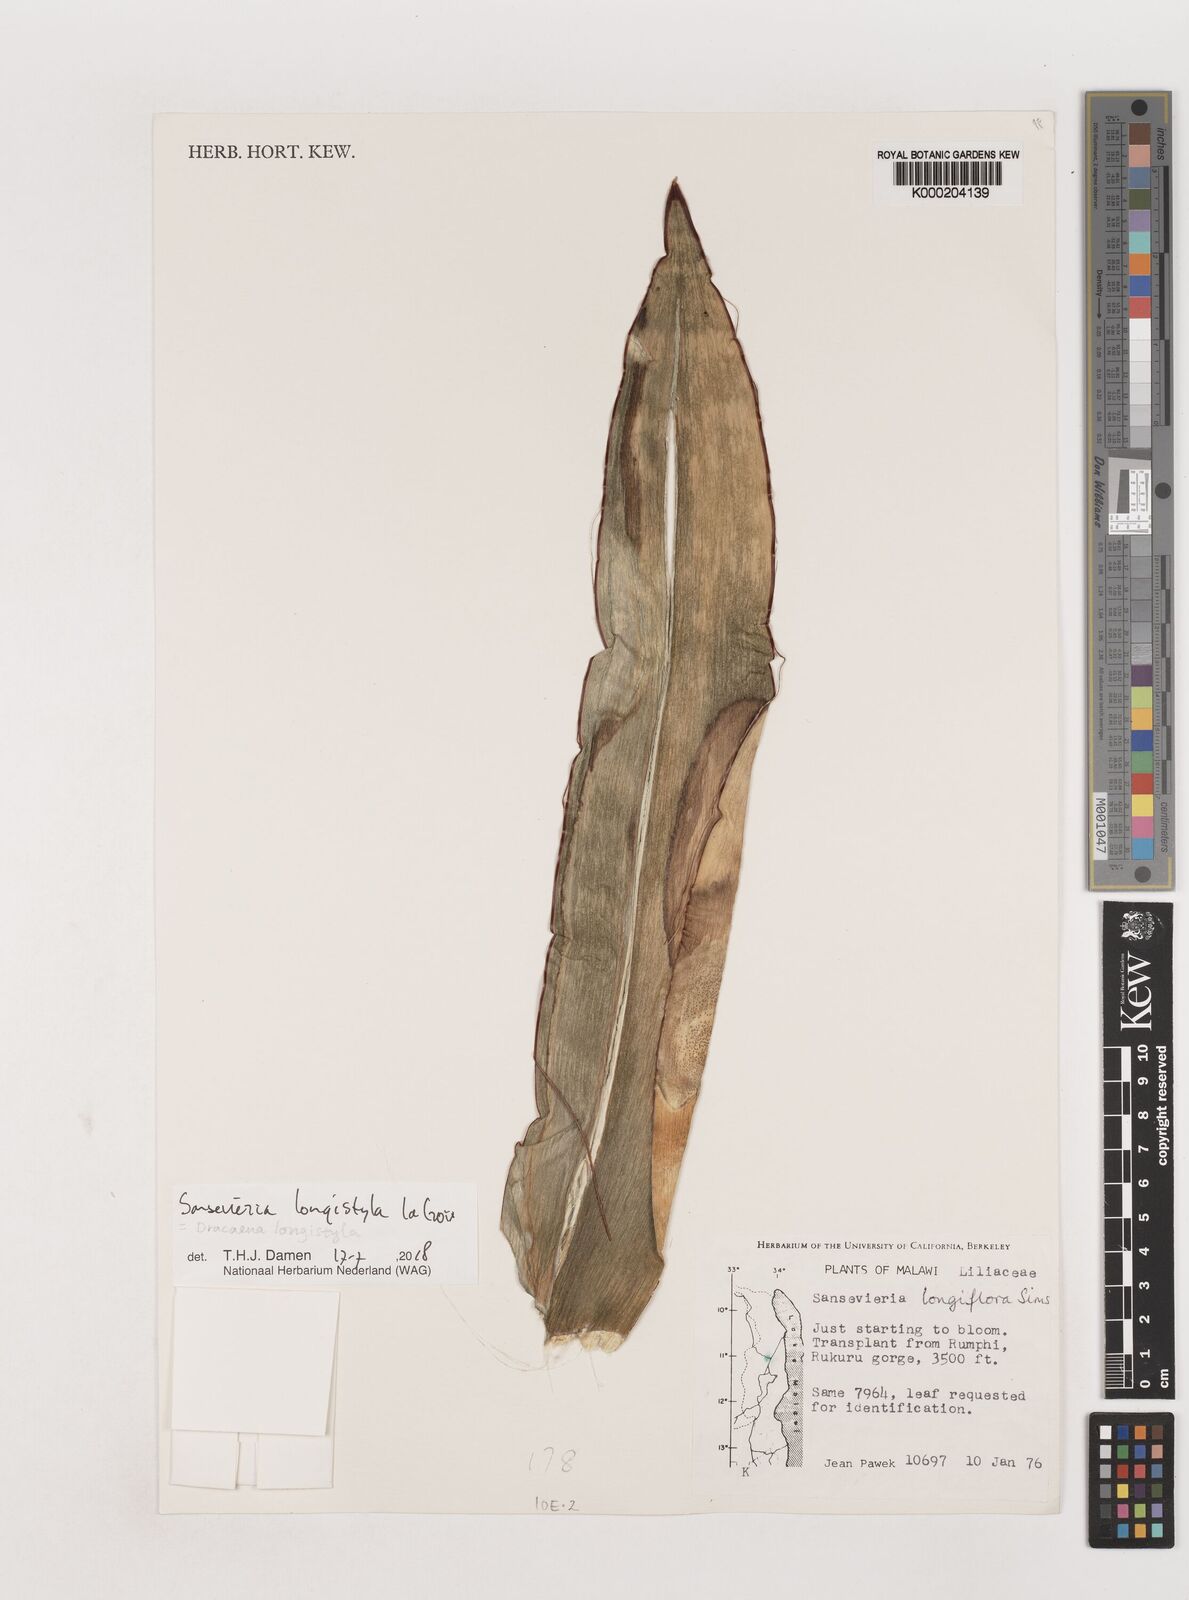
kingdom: Plantae
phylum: Tracheophyta
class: Liliopsida
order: Asparagales
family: Asparagaceae
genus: Dracaena
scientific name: Dracaena longistyla
